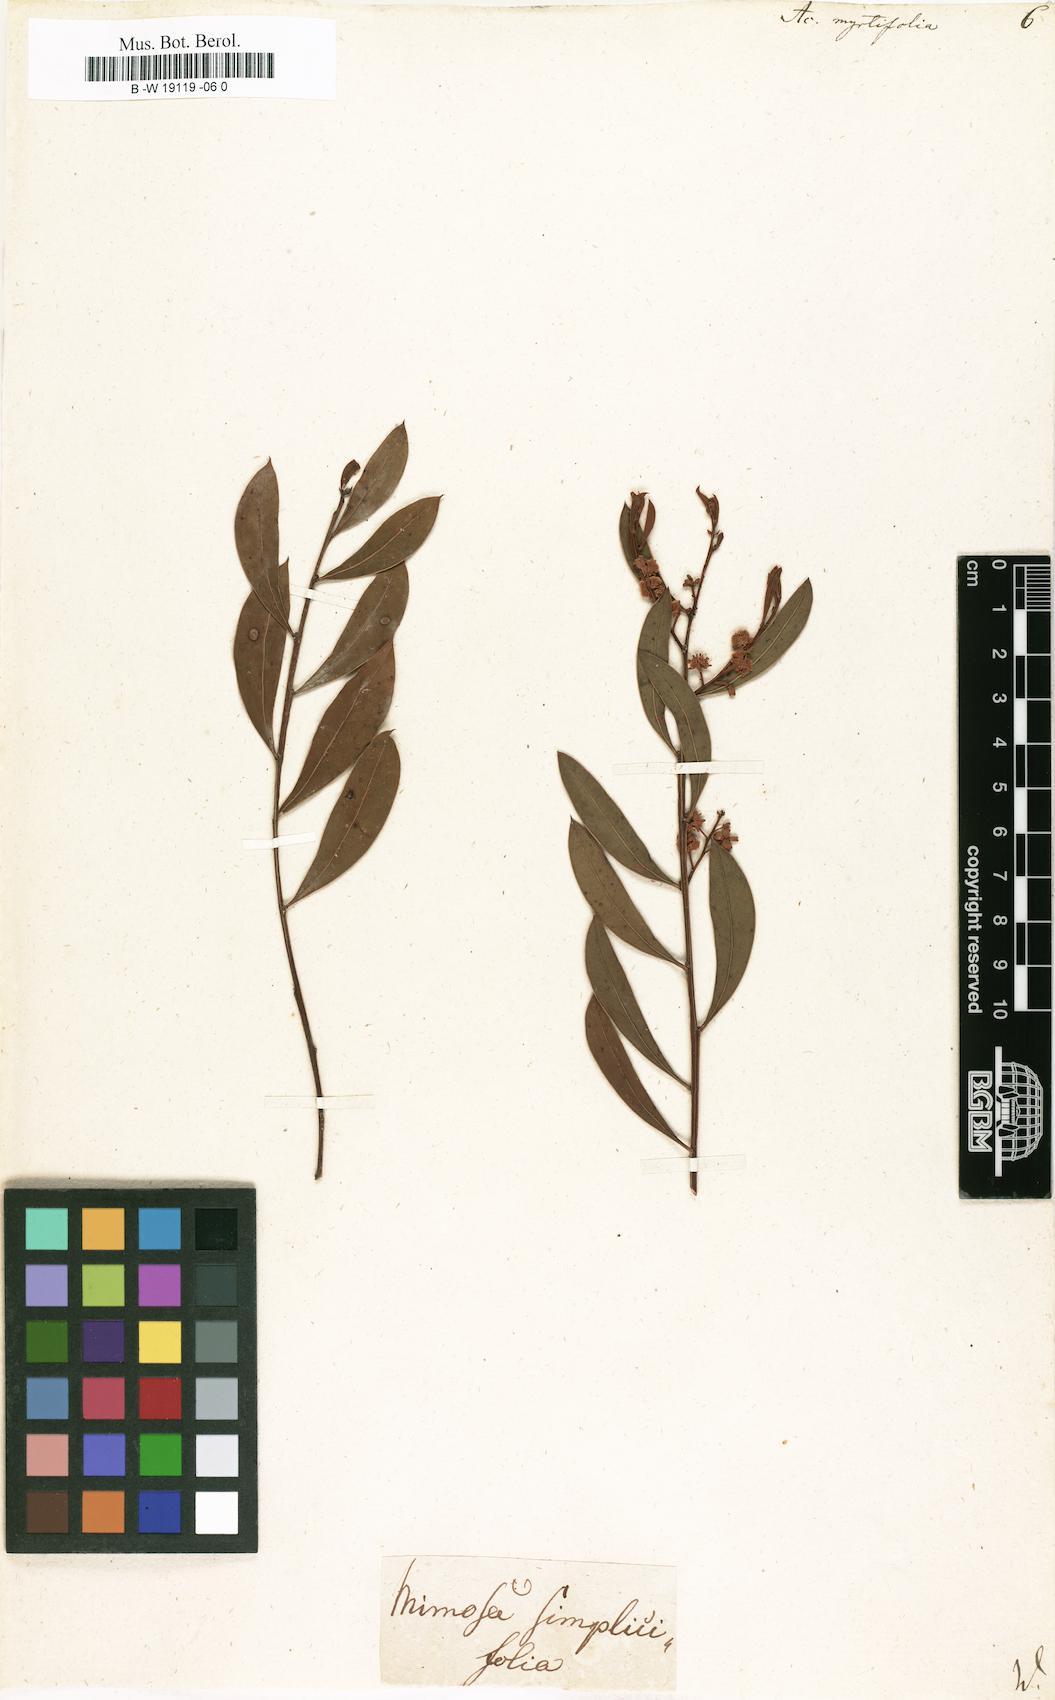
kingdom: Plantae
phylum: Tracheophyta
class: Magnoliopsida
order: Fabales
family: Fabaceae
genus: Acacia
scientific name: Acacia myrtifolia
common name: Myrtle wattle
